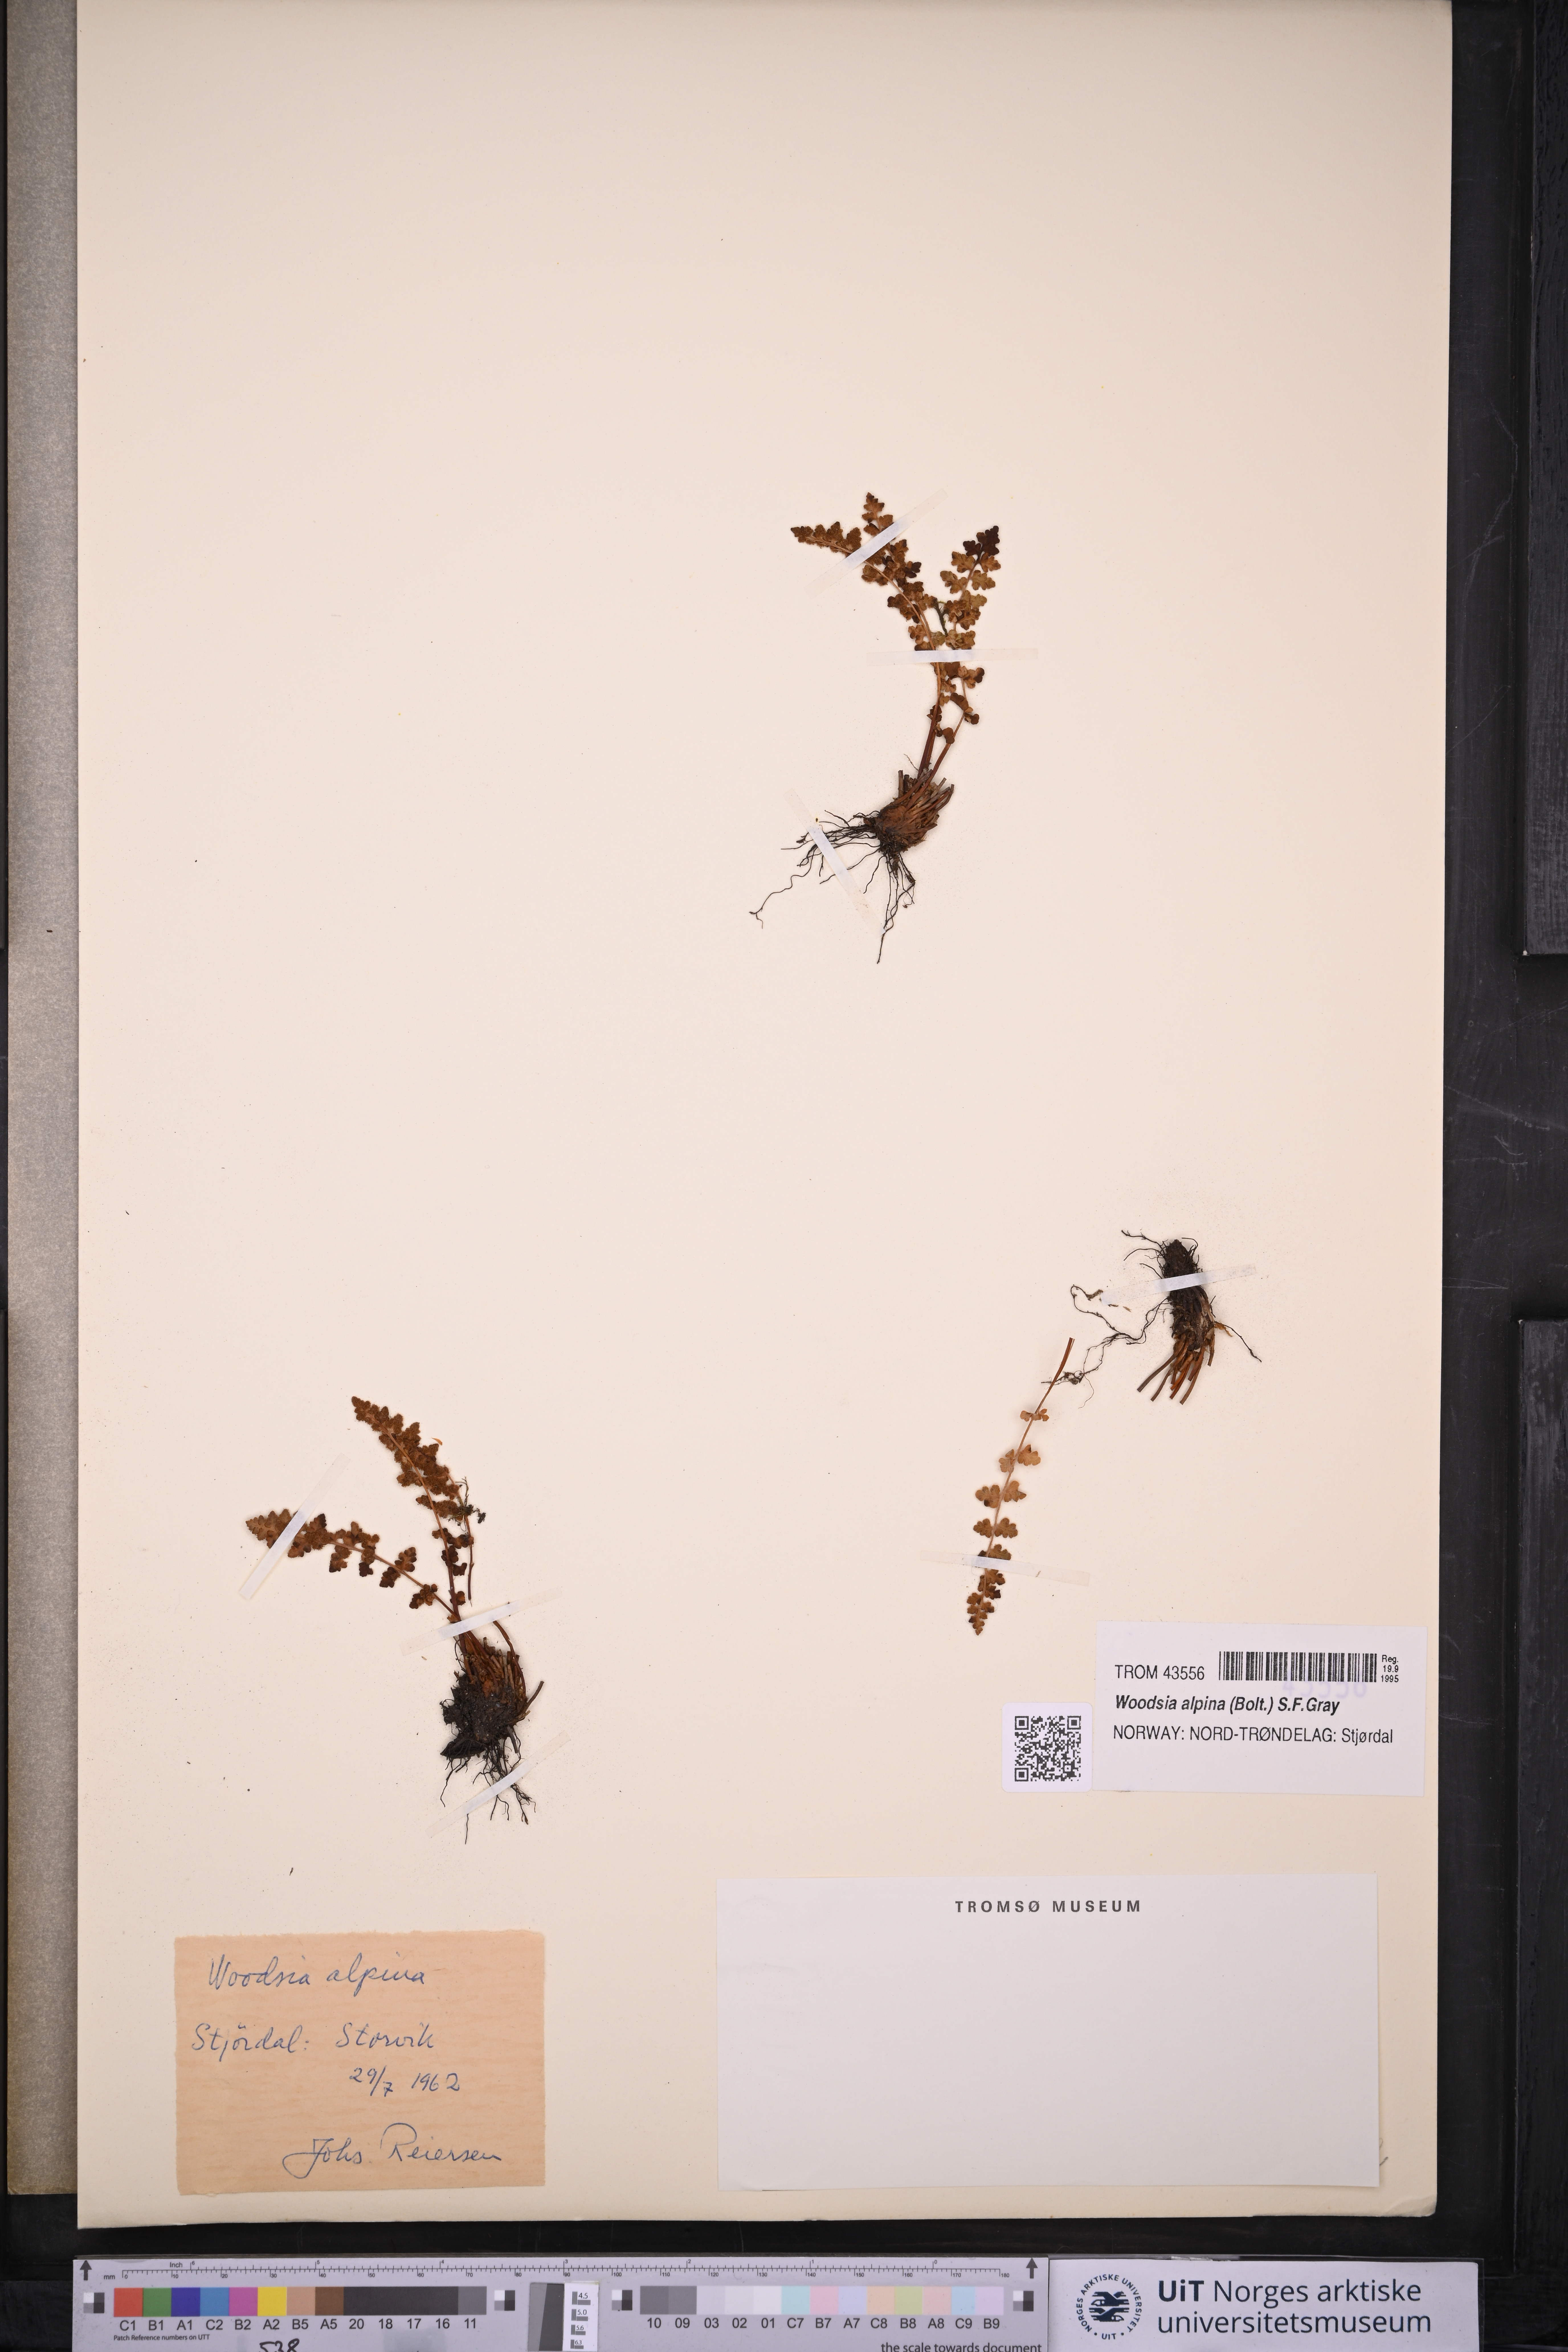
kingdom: Plantae
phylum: Tracheophyta
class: Polypodiopsida
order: Polypodiales
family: Woodsiaceae
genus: Woodsia
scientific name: Woodsia alpina
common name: Alpine woodsia
